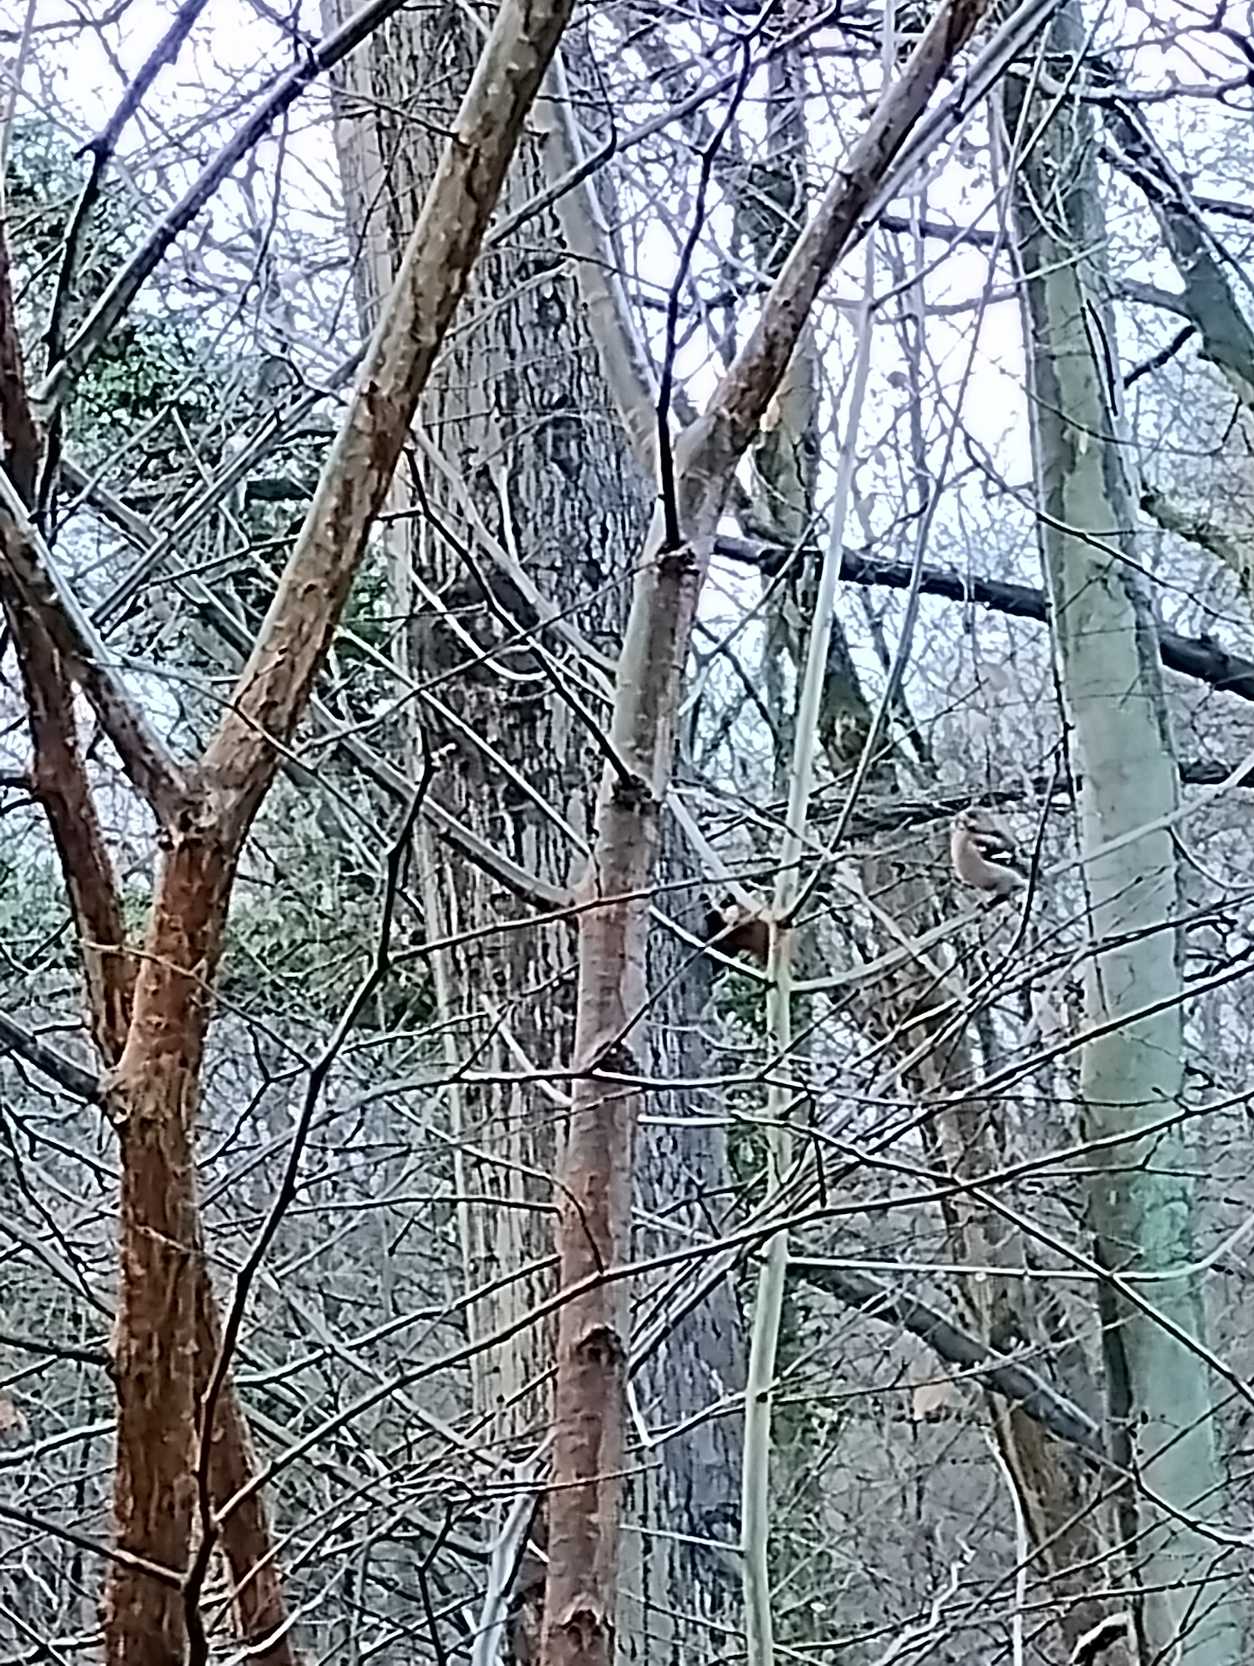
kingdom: Animalia
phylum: Chordata
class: Aves
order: Passeriformes
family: Fringillidae
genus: Fringilla
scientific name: Fringilla coelebs
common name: Bogfinke
